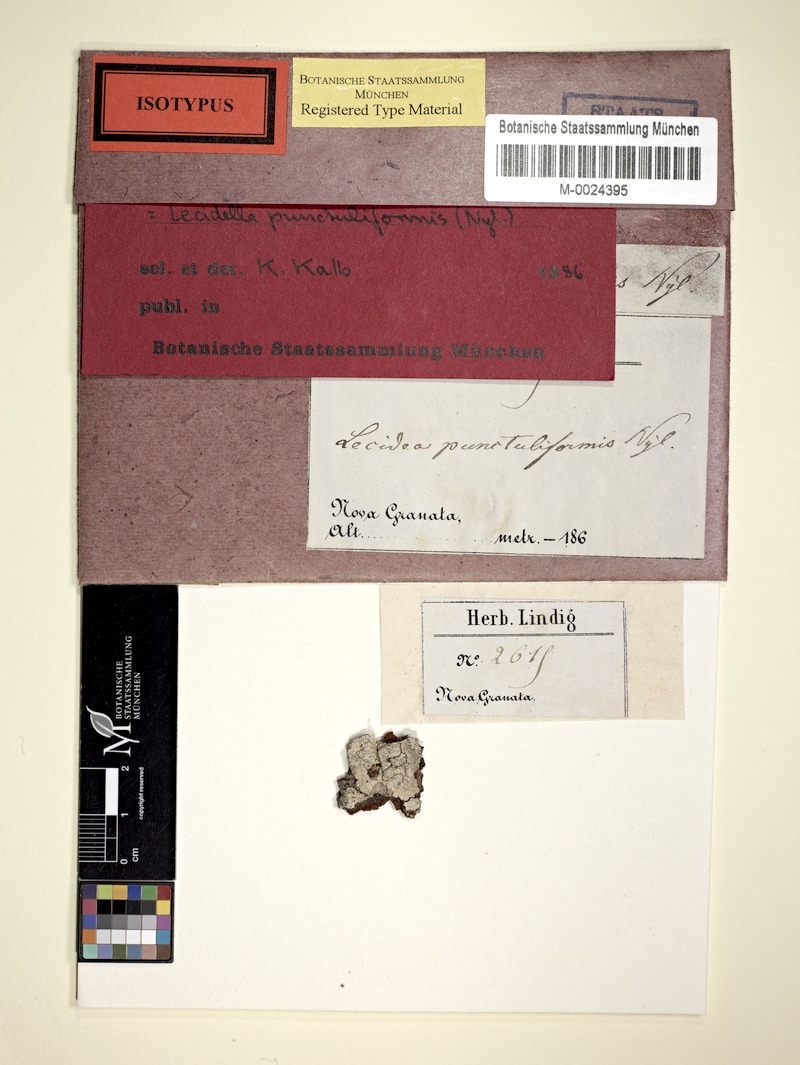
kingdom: Fungi
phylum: Ascomycota
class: Lecanoromycetes
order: Lecanorales
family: Lecanoraceae
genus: Lecidella
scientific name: Lecidella punctuliformis
